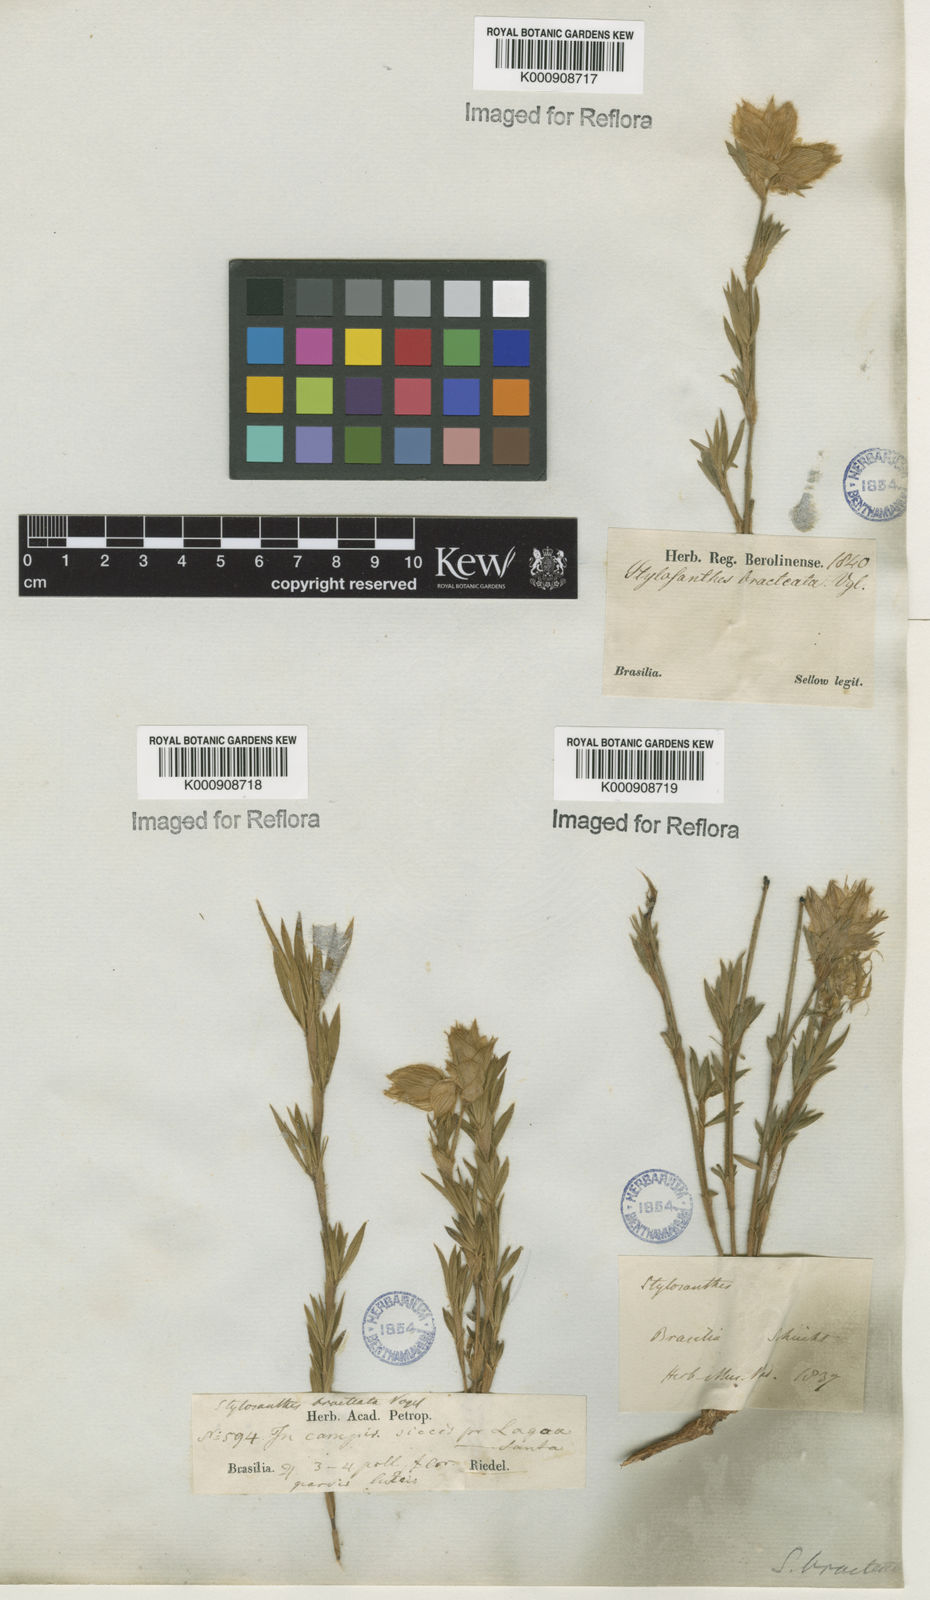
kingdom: Plantae
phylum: Tracheophyta
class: Magnoliopsida
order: Fabales
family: Fabaceae
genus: Stylosanthes
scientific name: Stylosanthes bracteata
